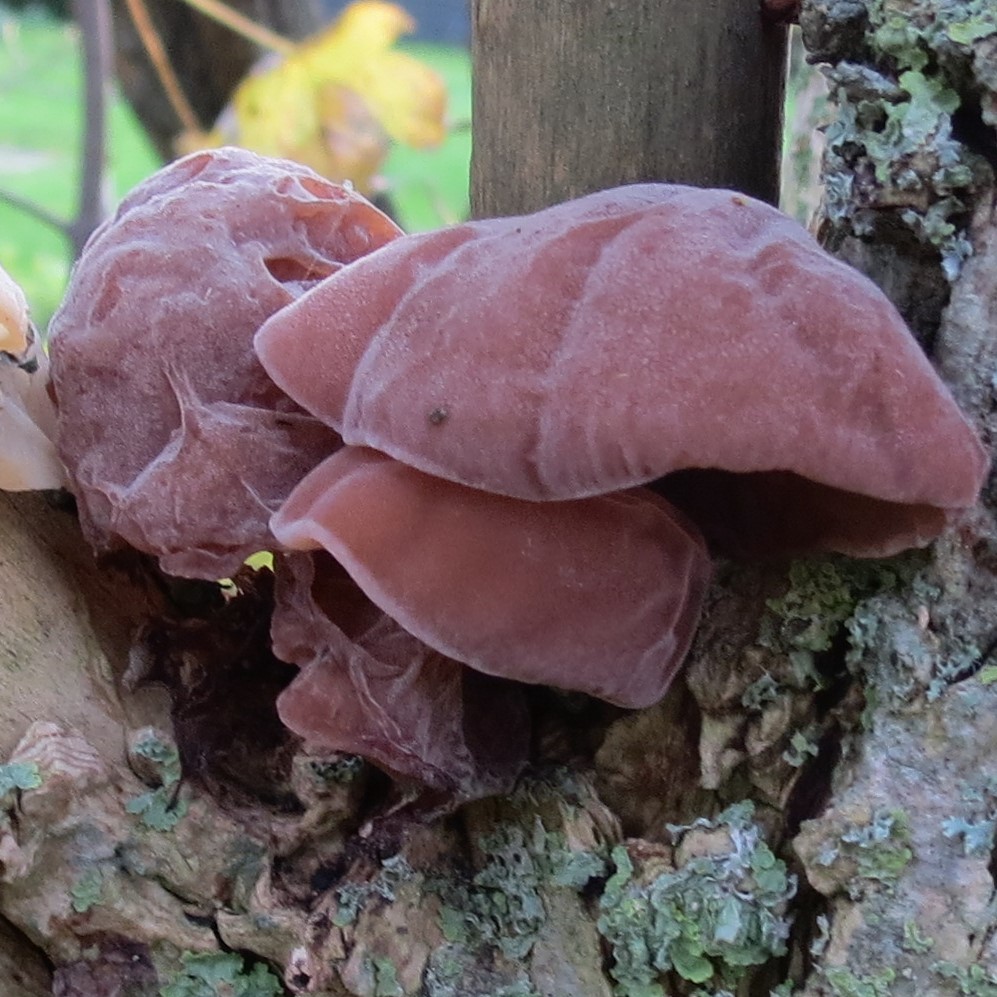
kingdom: Fungi
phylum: Basidiomycota
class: Agaricomycetes
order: Auriculariales
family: Auriculariaceae
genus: Auricularia
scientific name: Auricularia auricula-judae
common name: almindelig judasøre
